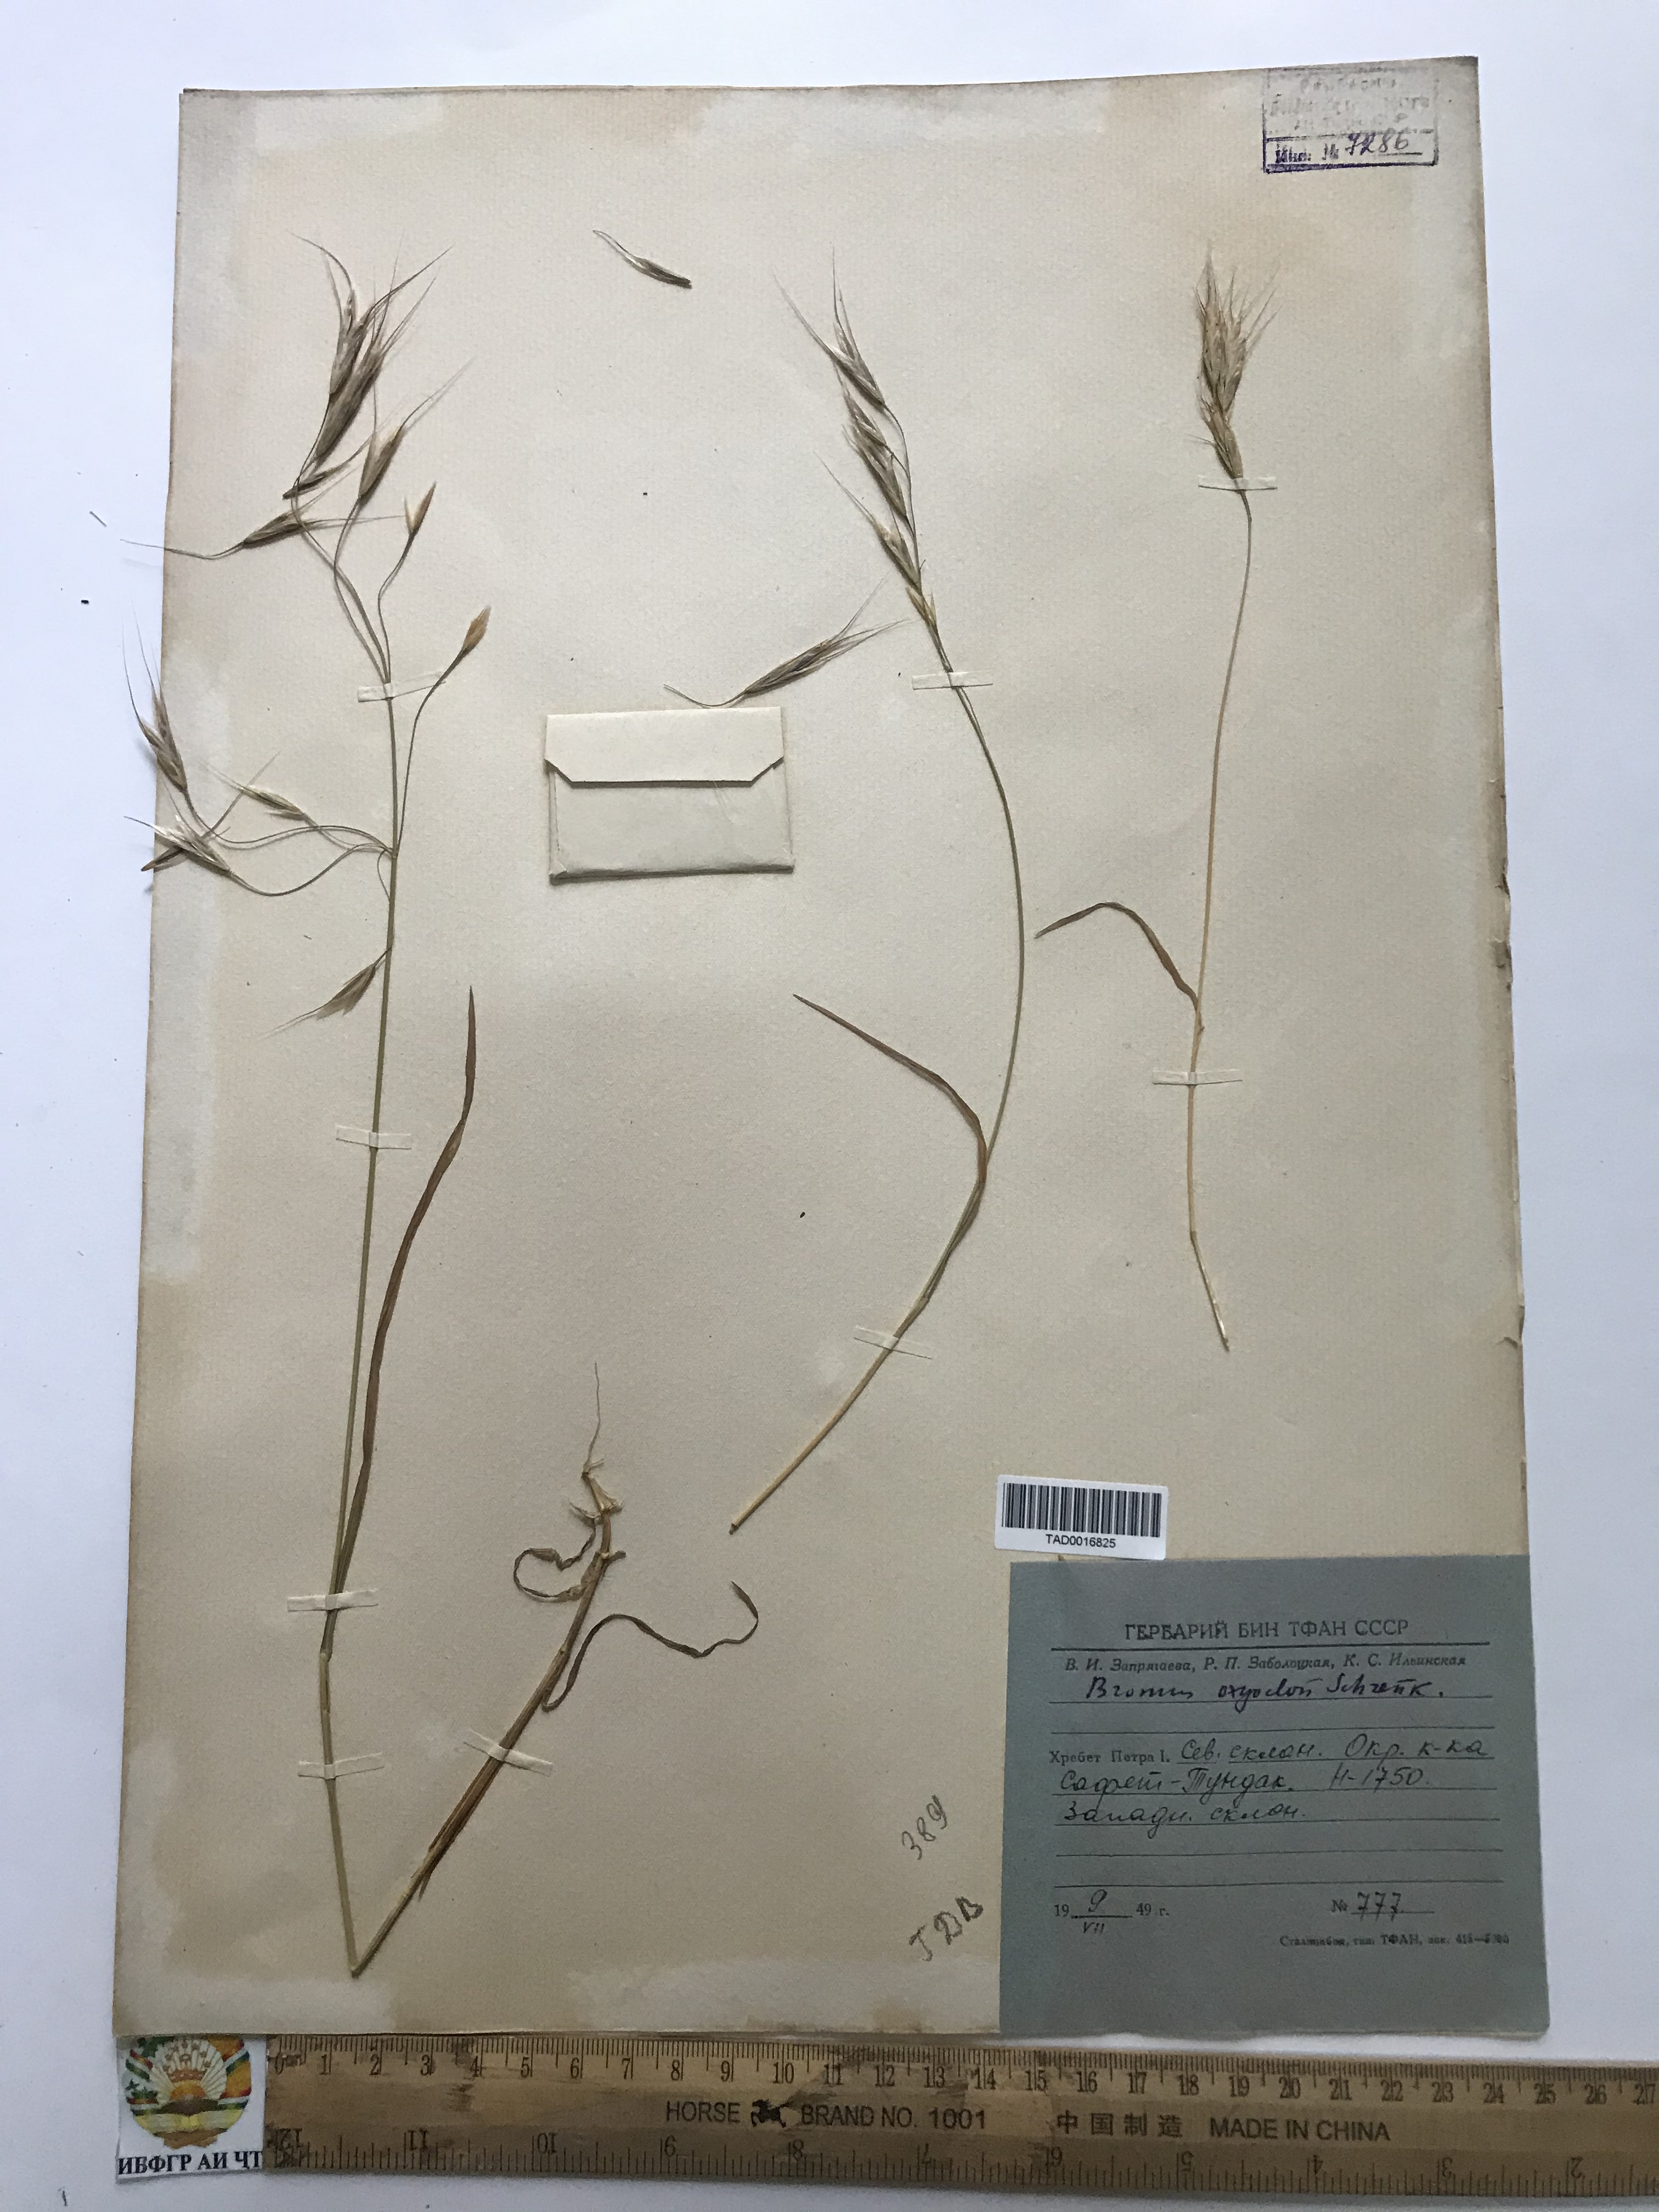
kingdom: Plantae
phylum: Tracheophyta
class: Liliopsida
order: Poales
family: Poaceae
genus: Bromus
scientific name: Bromus oxyodon
